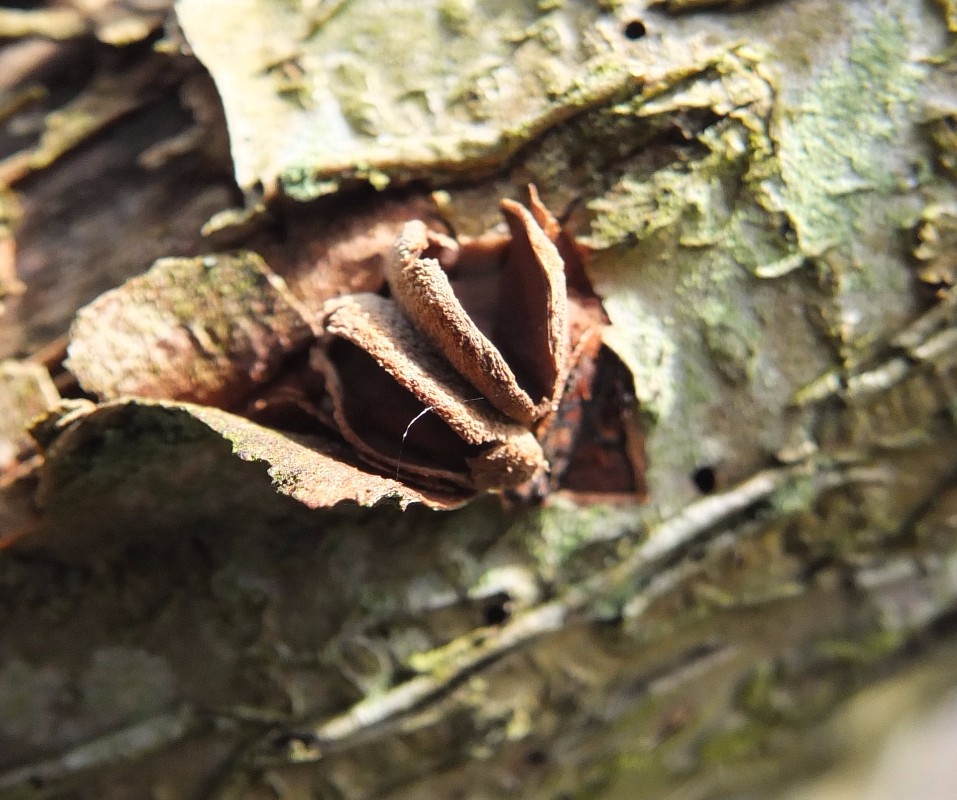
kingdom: Fungi
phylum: Ascomycota
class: Leotiomycetes
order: Helotiales
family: Cenangiaceae
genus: Encoelia
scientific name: Encoelia furfuracea
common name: hassel-læderskive
